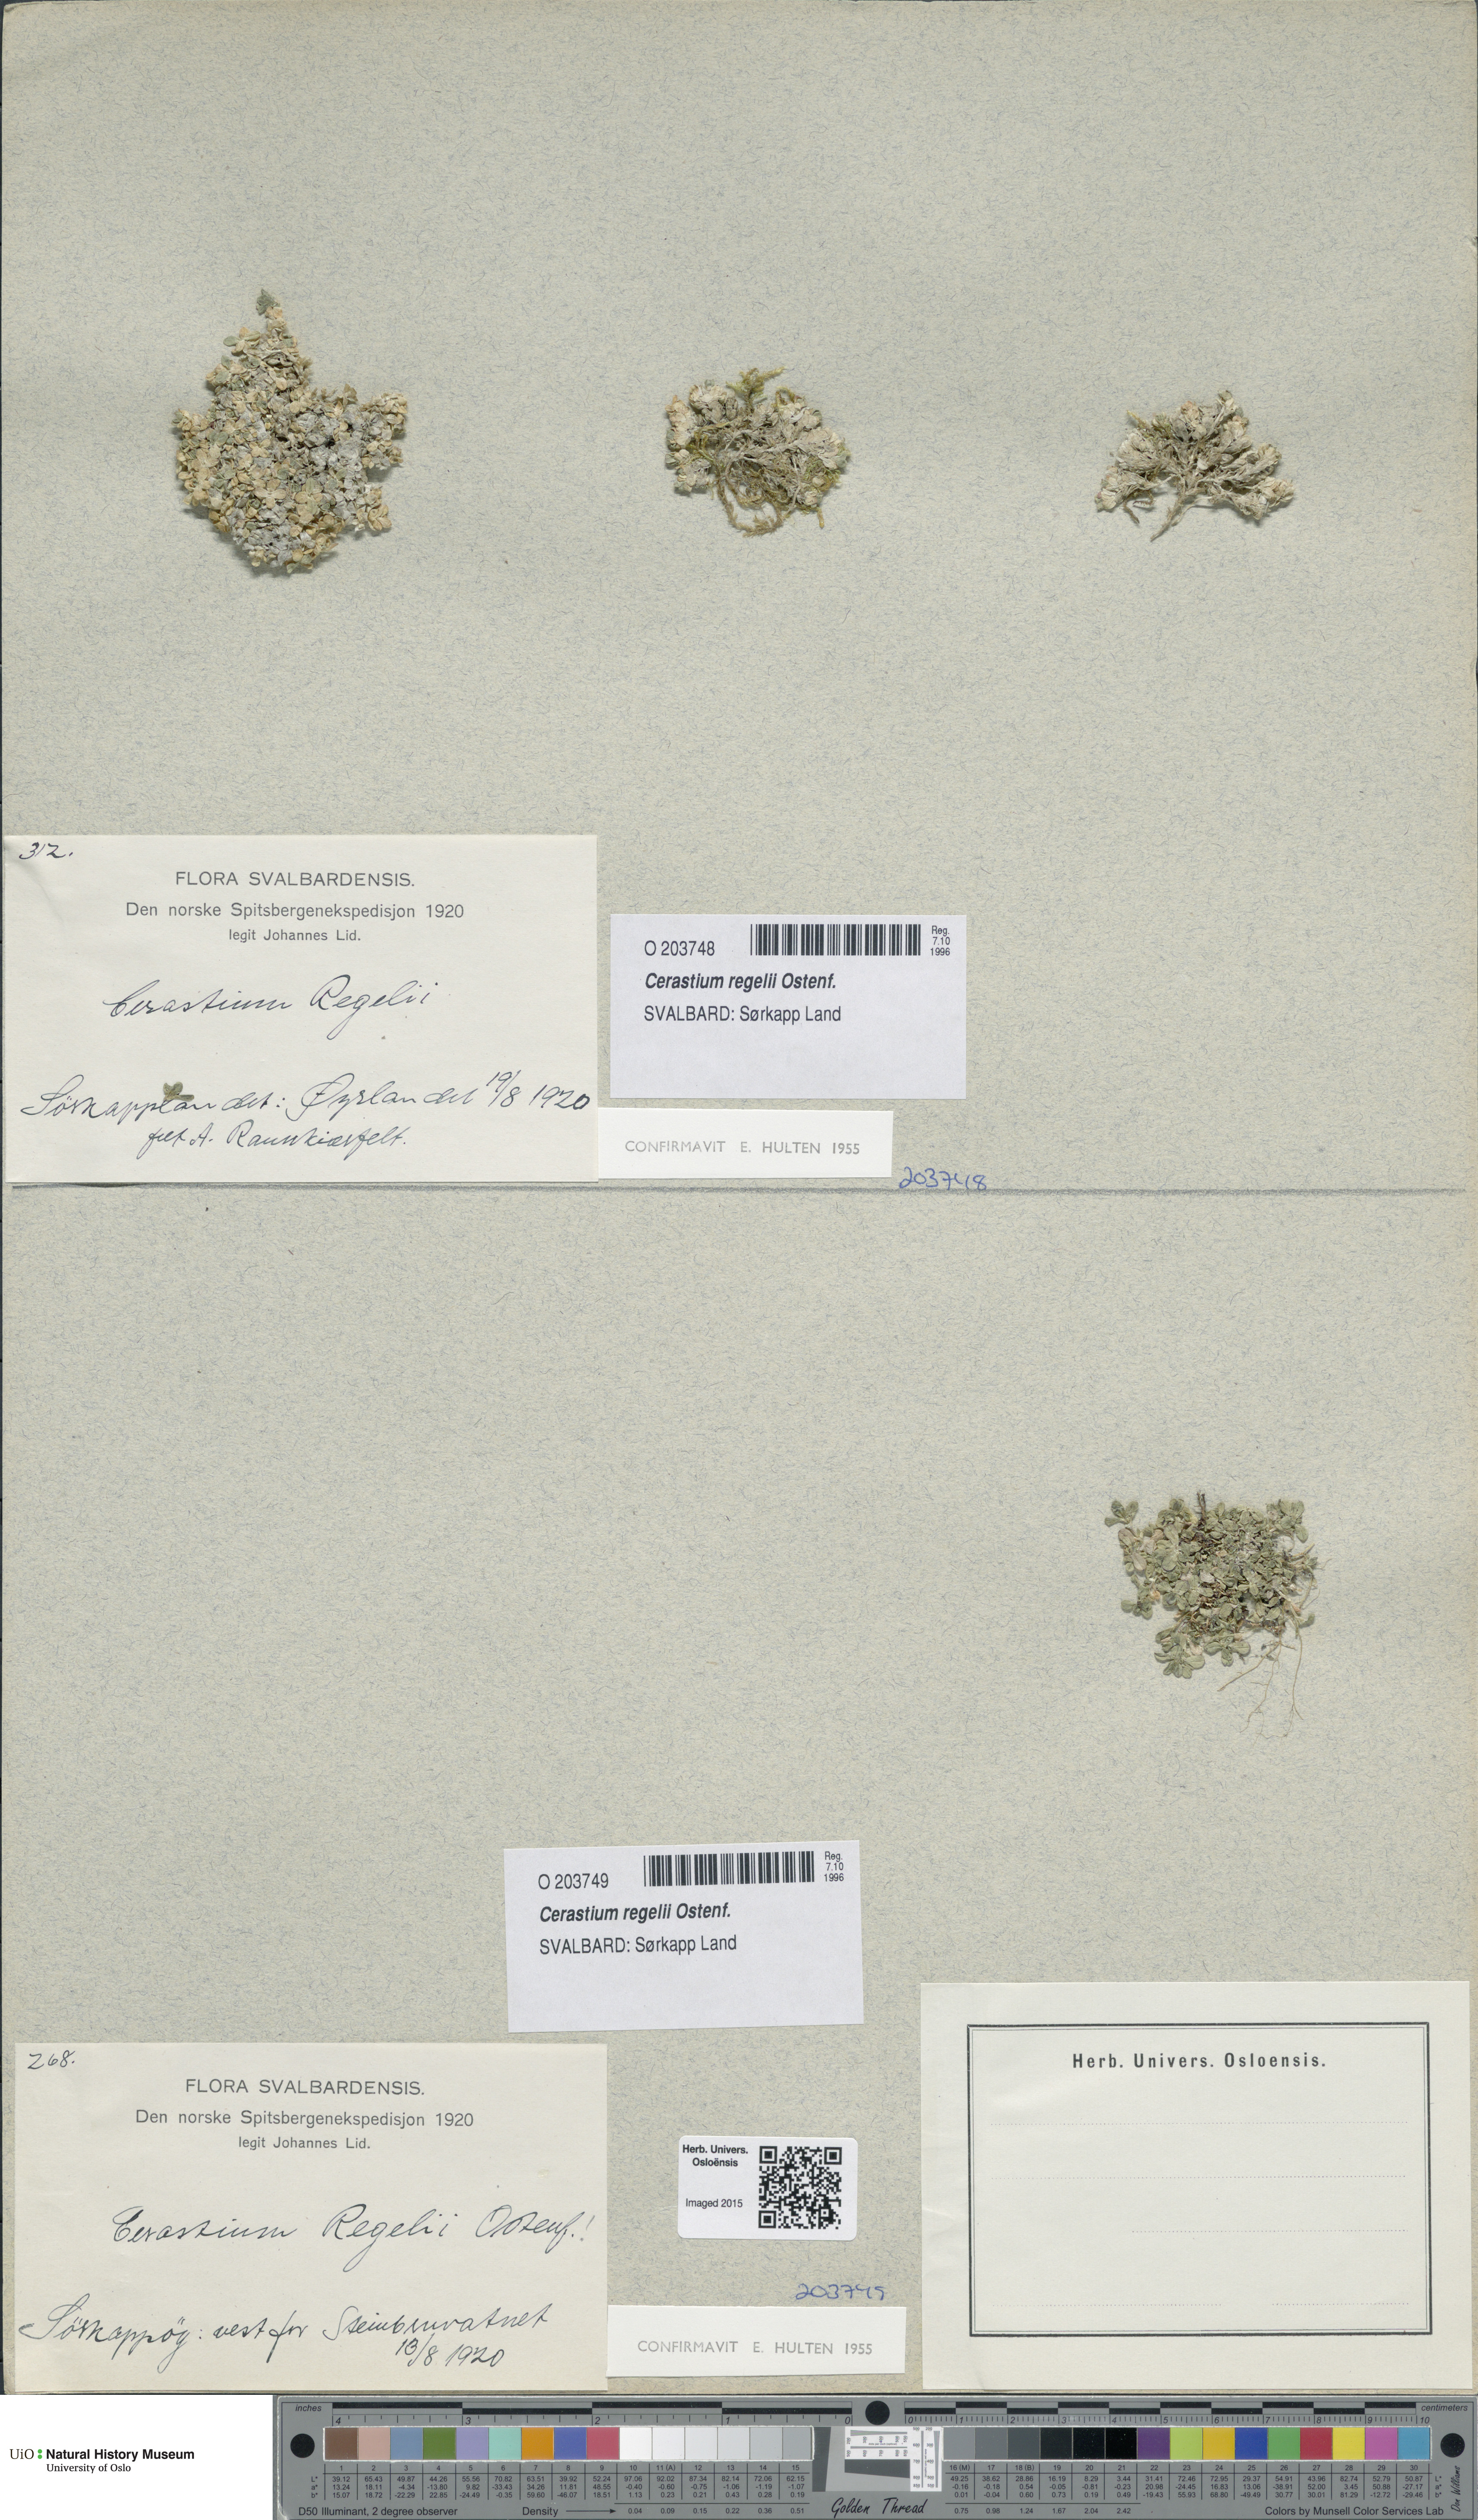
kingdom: Plantae
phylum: Tracheophyta
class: Magnoliopsida
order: Caryophyllales
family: Caryophyllaceae
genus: Cerastium
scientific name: Cerastium regelii
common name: Regel's chickweed
